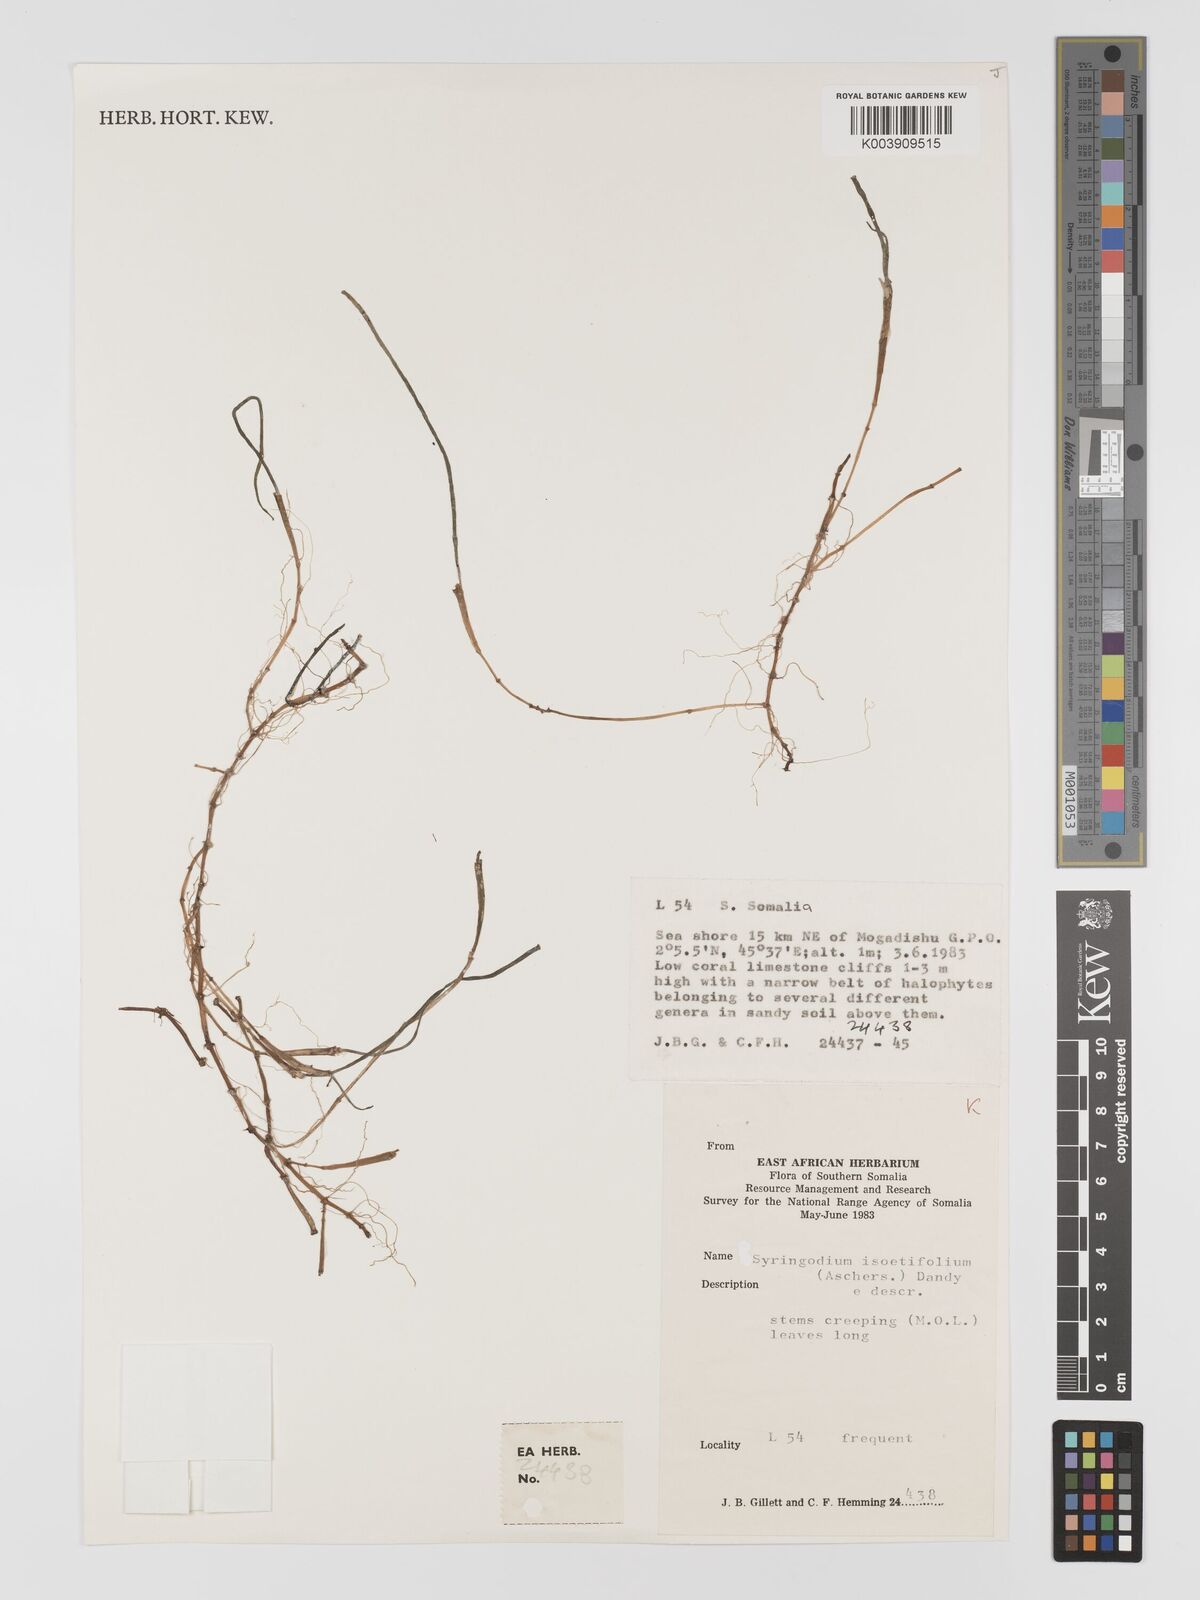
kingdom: Plantae
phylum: Tracheophyta
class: Liliopsida
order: Alismatales
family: Cymodoceaceae
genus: Syringodium
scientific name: Syringodium isoetifolium
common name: Species code: si
